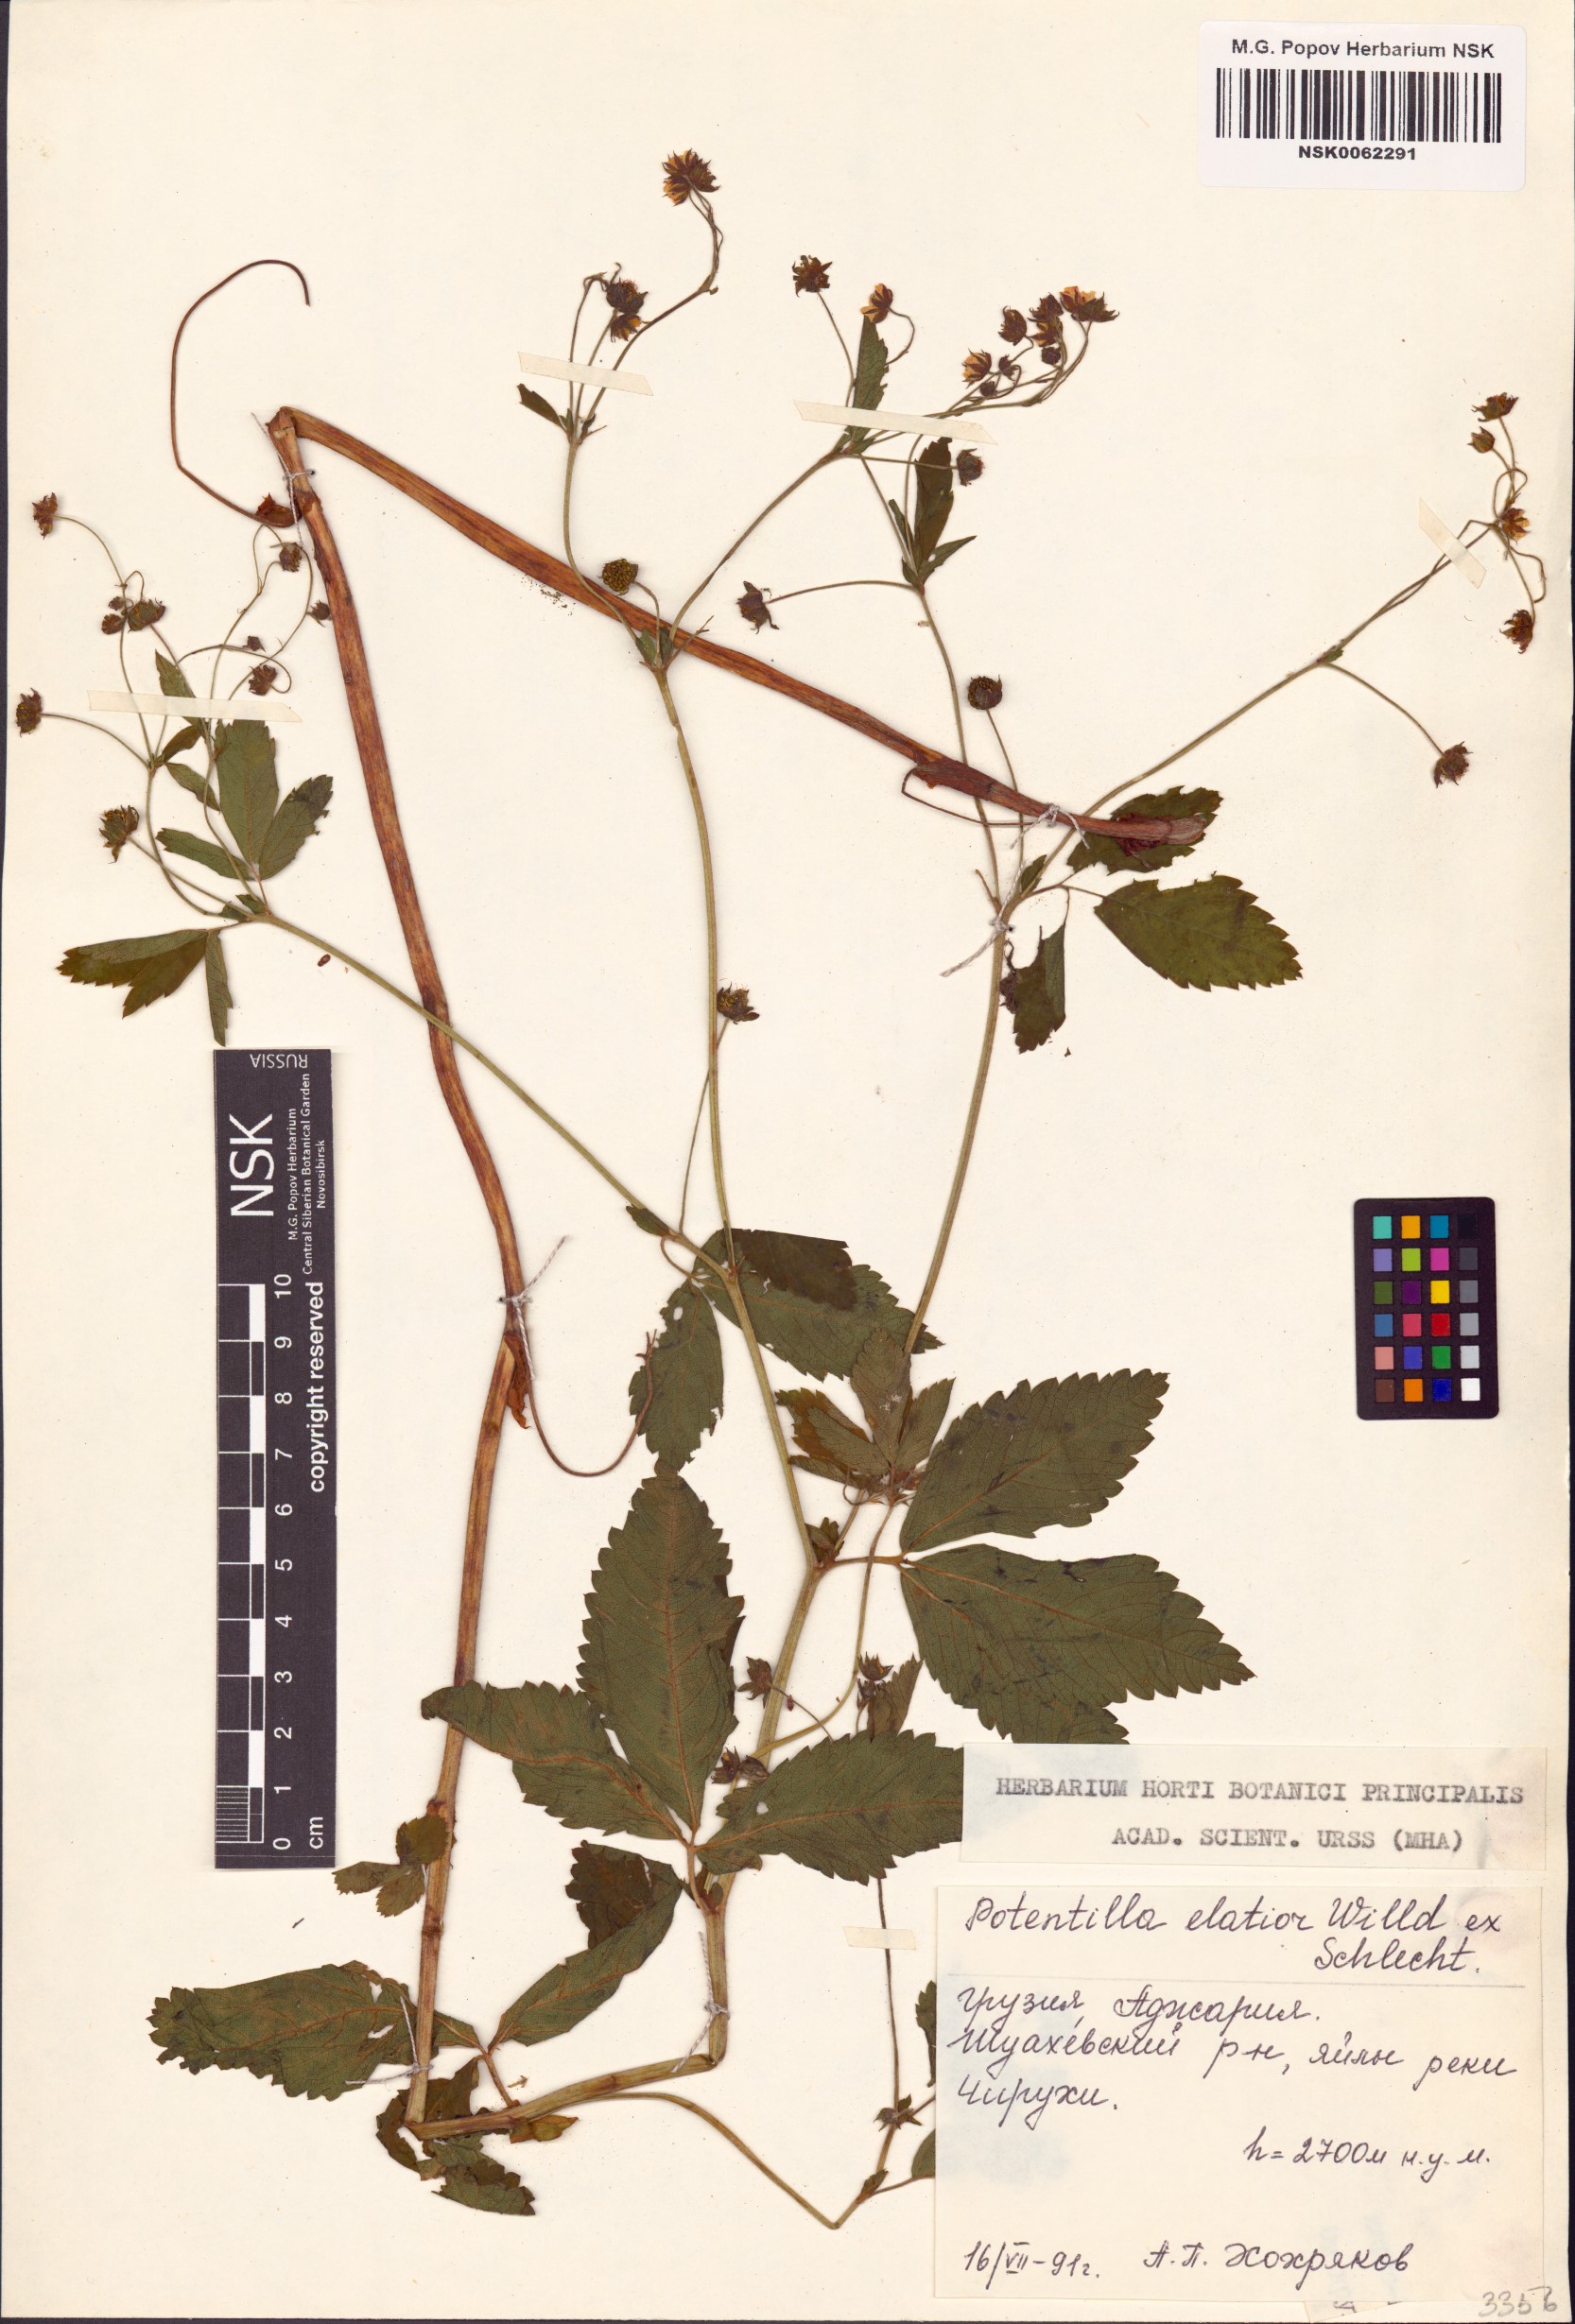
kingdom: Plantae
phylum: Tracheophyta
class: Magnoliopsida
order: Rosales
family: Rosaceae
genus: Potentilla
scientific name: Potentilla elatior
